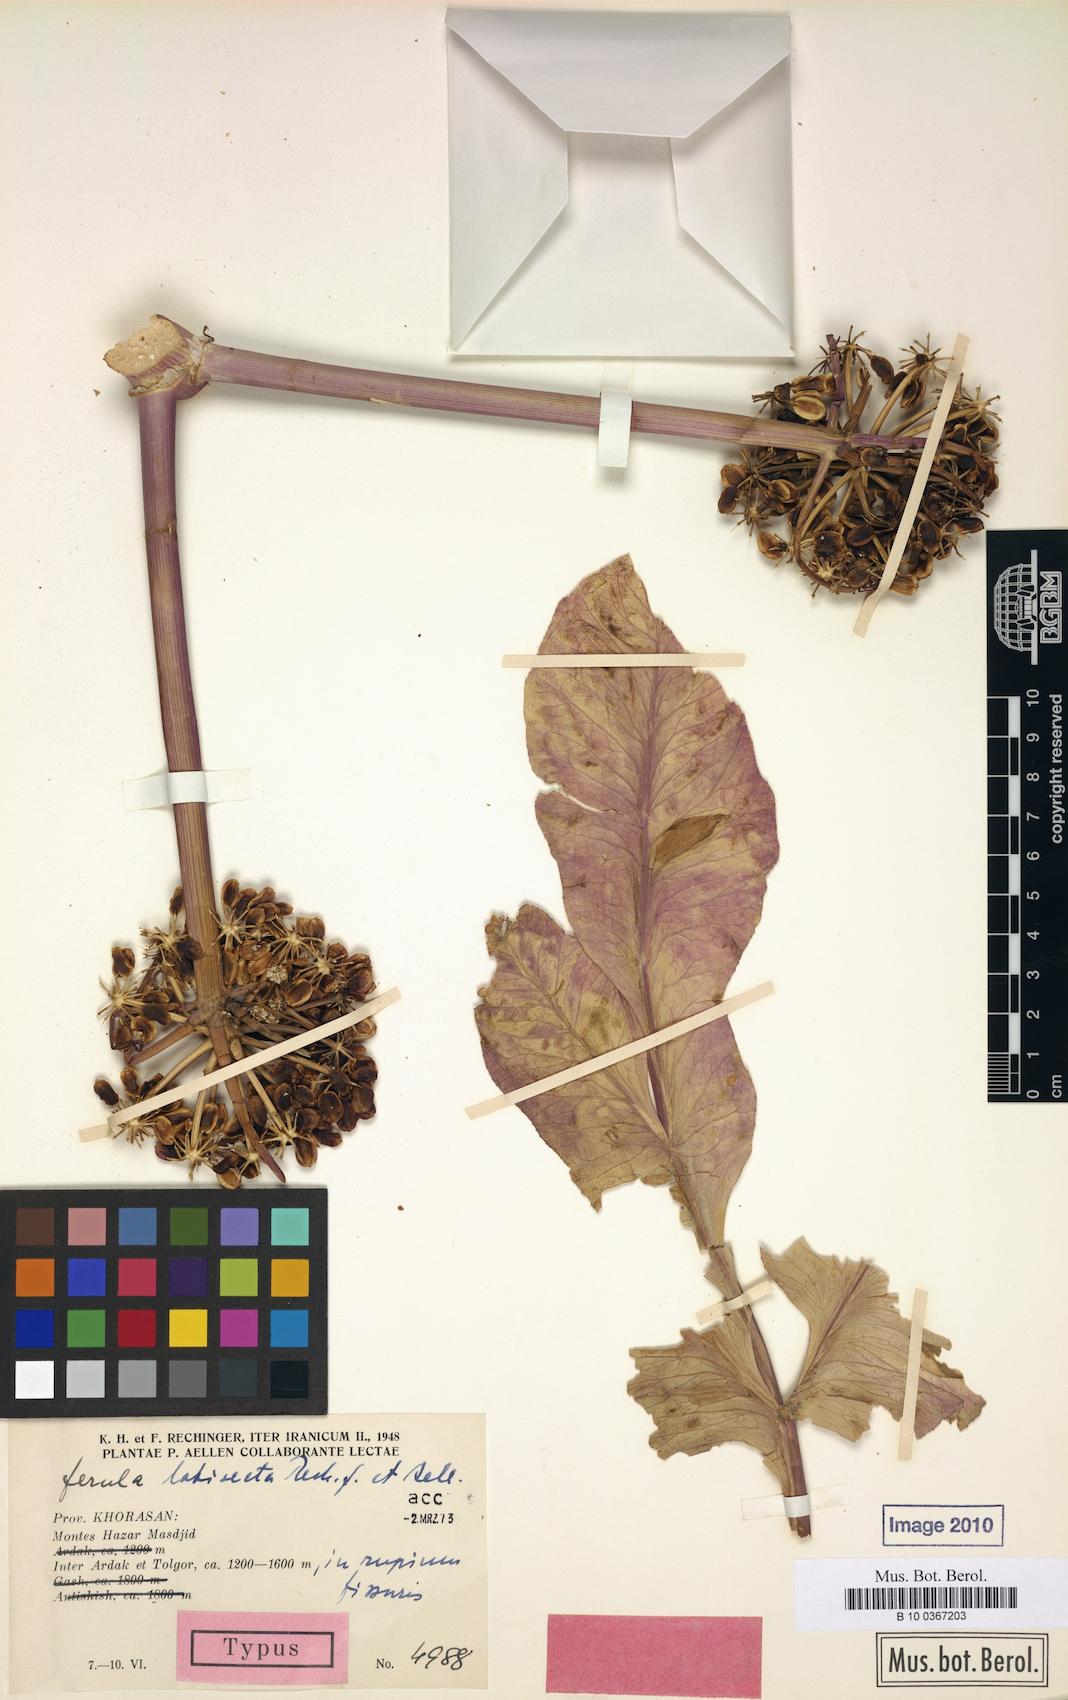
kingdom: Plantae
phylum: Tracheophyta
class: Magnoliopsida
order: Apiales
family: Apiaceae
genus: Ferula
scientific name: Ferula latisecta
